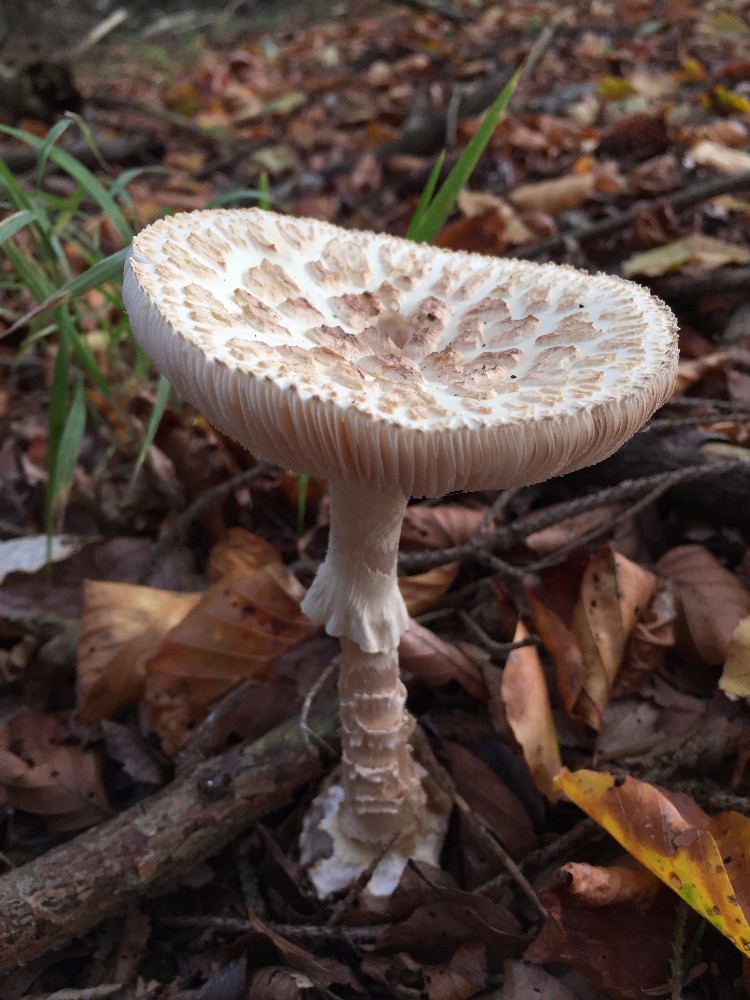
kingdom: Fungi
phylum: Basidiomycota
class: Agaricomycetes
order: Agaricales
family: Amanitaceae
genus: Amanita
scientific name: Amanita citrina
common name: False death-cap
